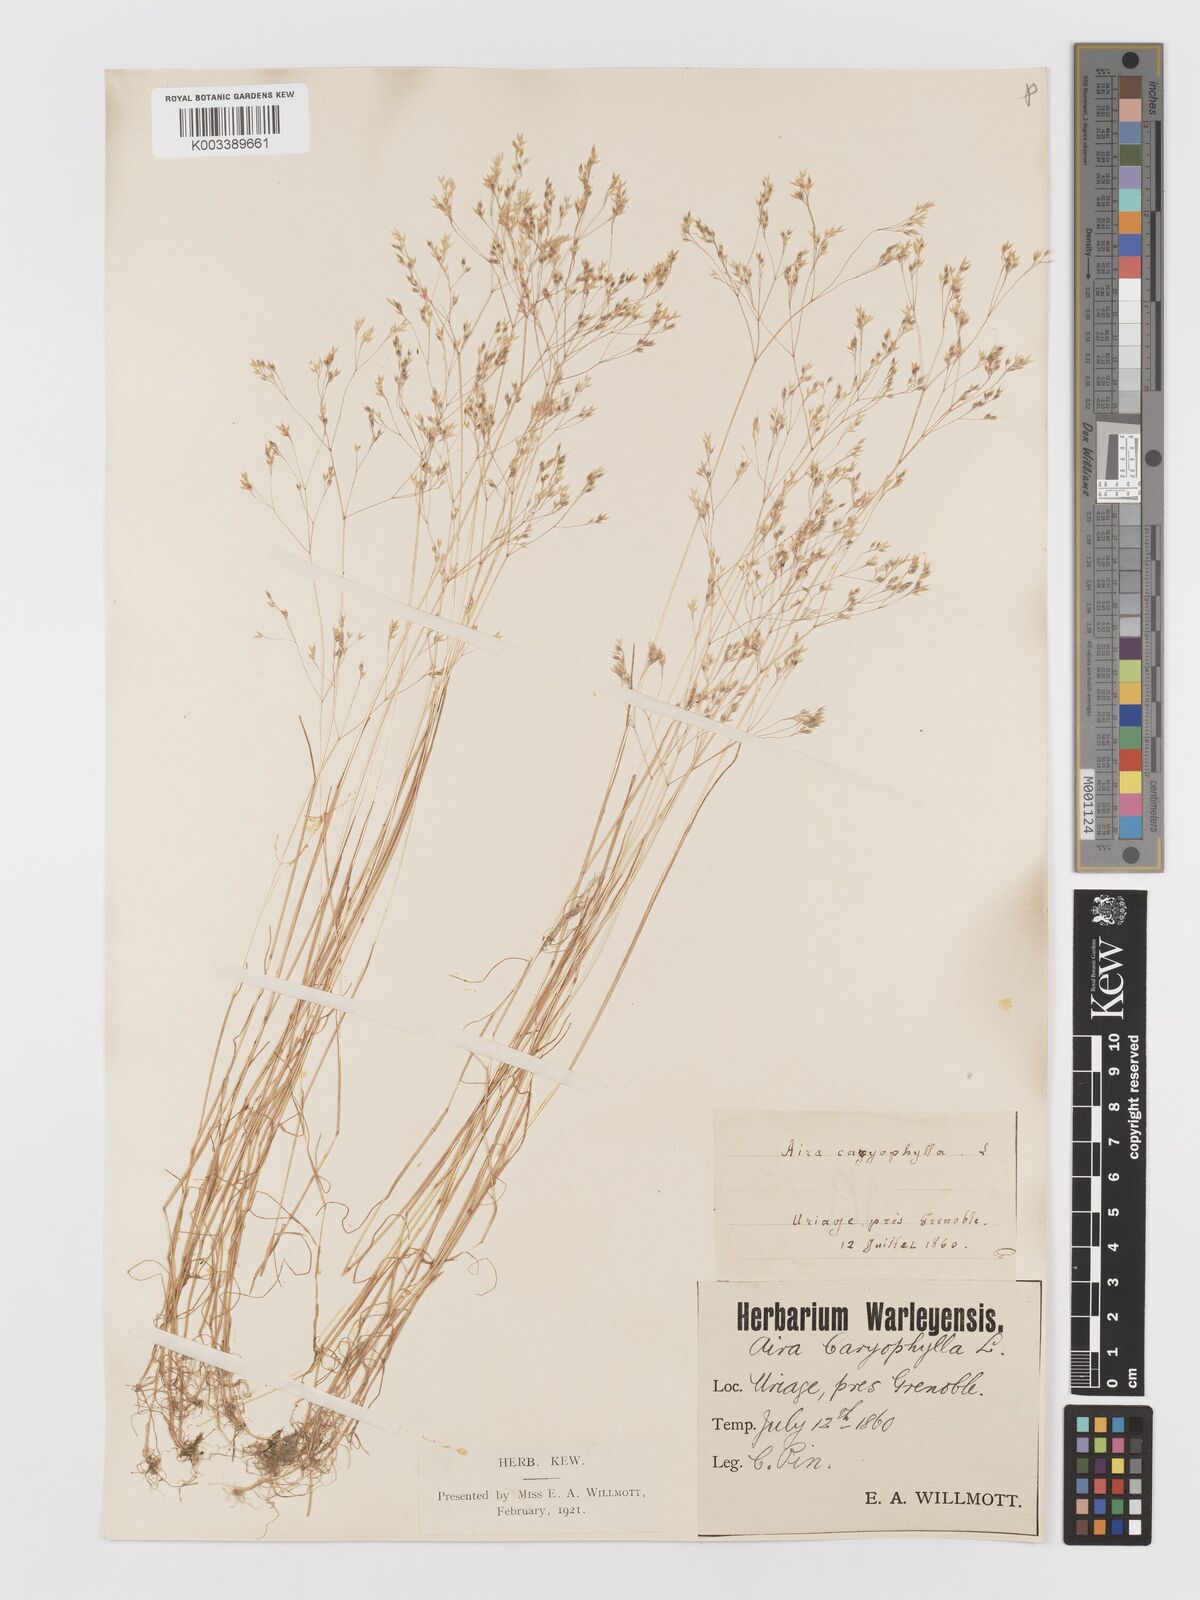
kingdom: Plantae
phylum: Tracheophyta
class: Liliopsida
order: Poales
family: Poaceae
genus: Aira
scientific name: Aira caryophyllea
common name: Silver hairgrass
